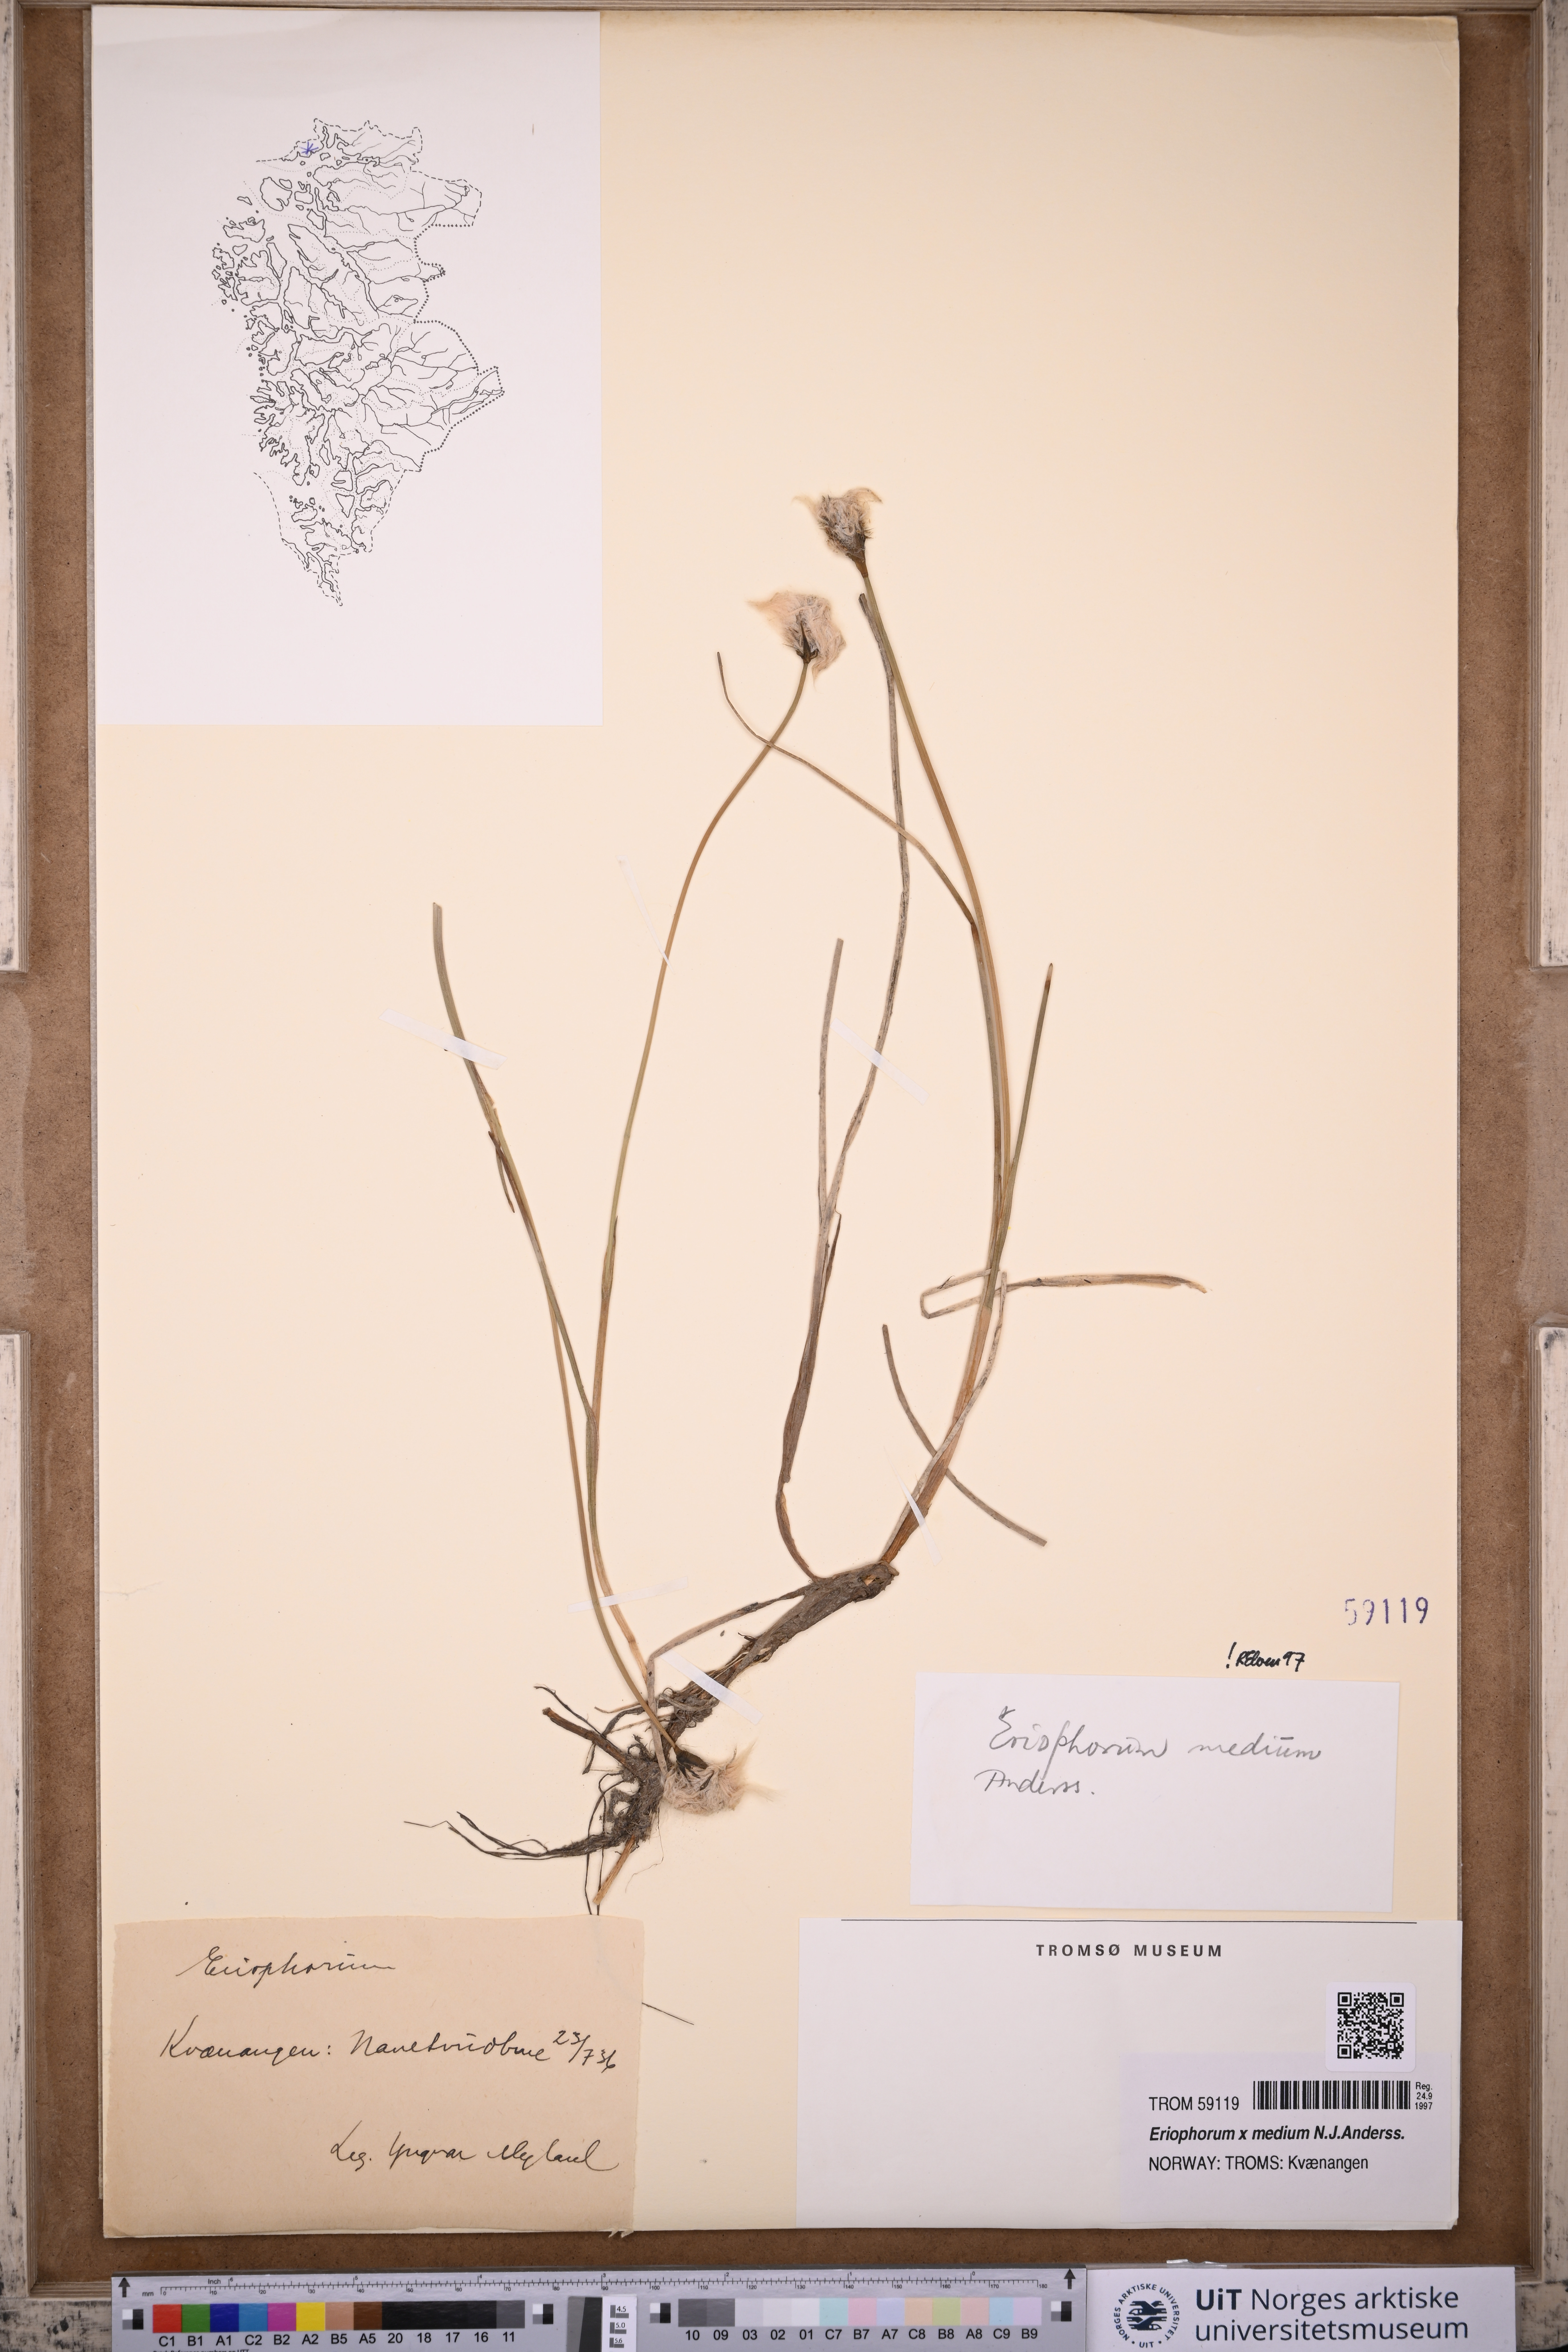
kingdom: Plantae
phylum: Tracheophyta
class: Liliopsida
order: Poales
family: Cyperaceae
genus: Eriophorum
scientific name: Eriophorum medium
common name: Intermediate cottongrass
